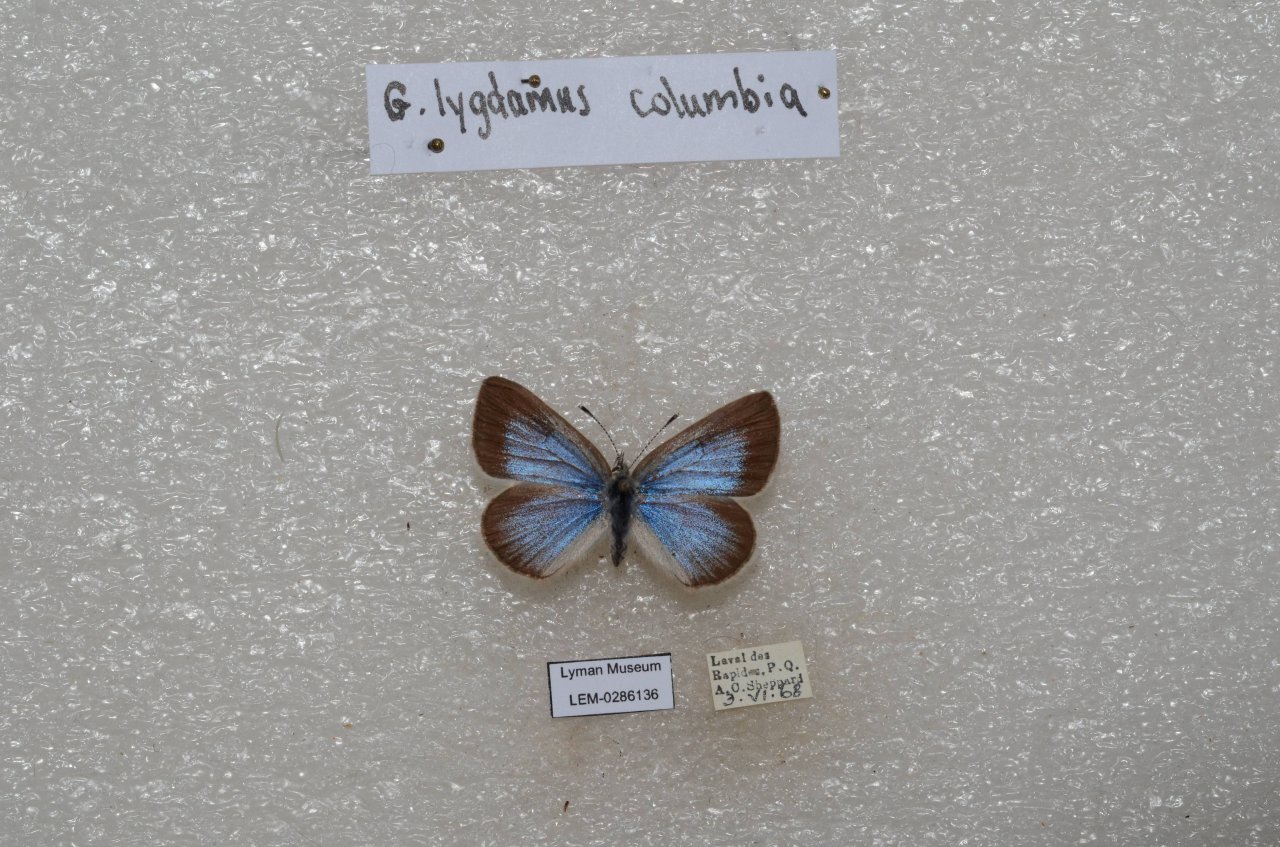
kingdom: Animalia
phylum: Arthropoda
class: Insecta
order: Lepidoptera
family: Lycaenidae
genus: Glaucopsyche
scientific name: Glaucopsyche lygdamus
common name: Silvery Blue
